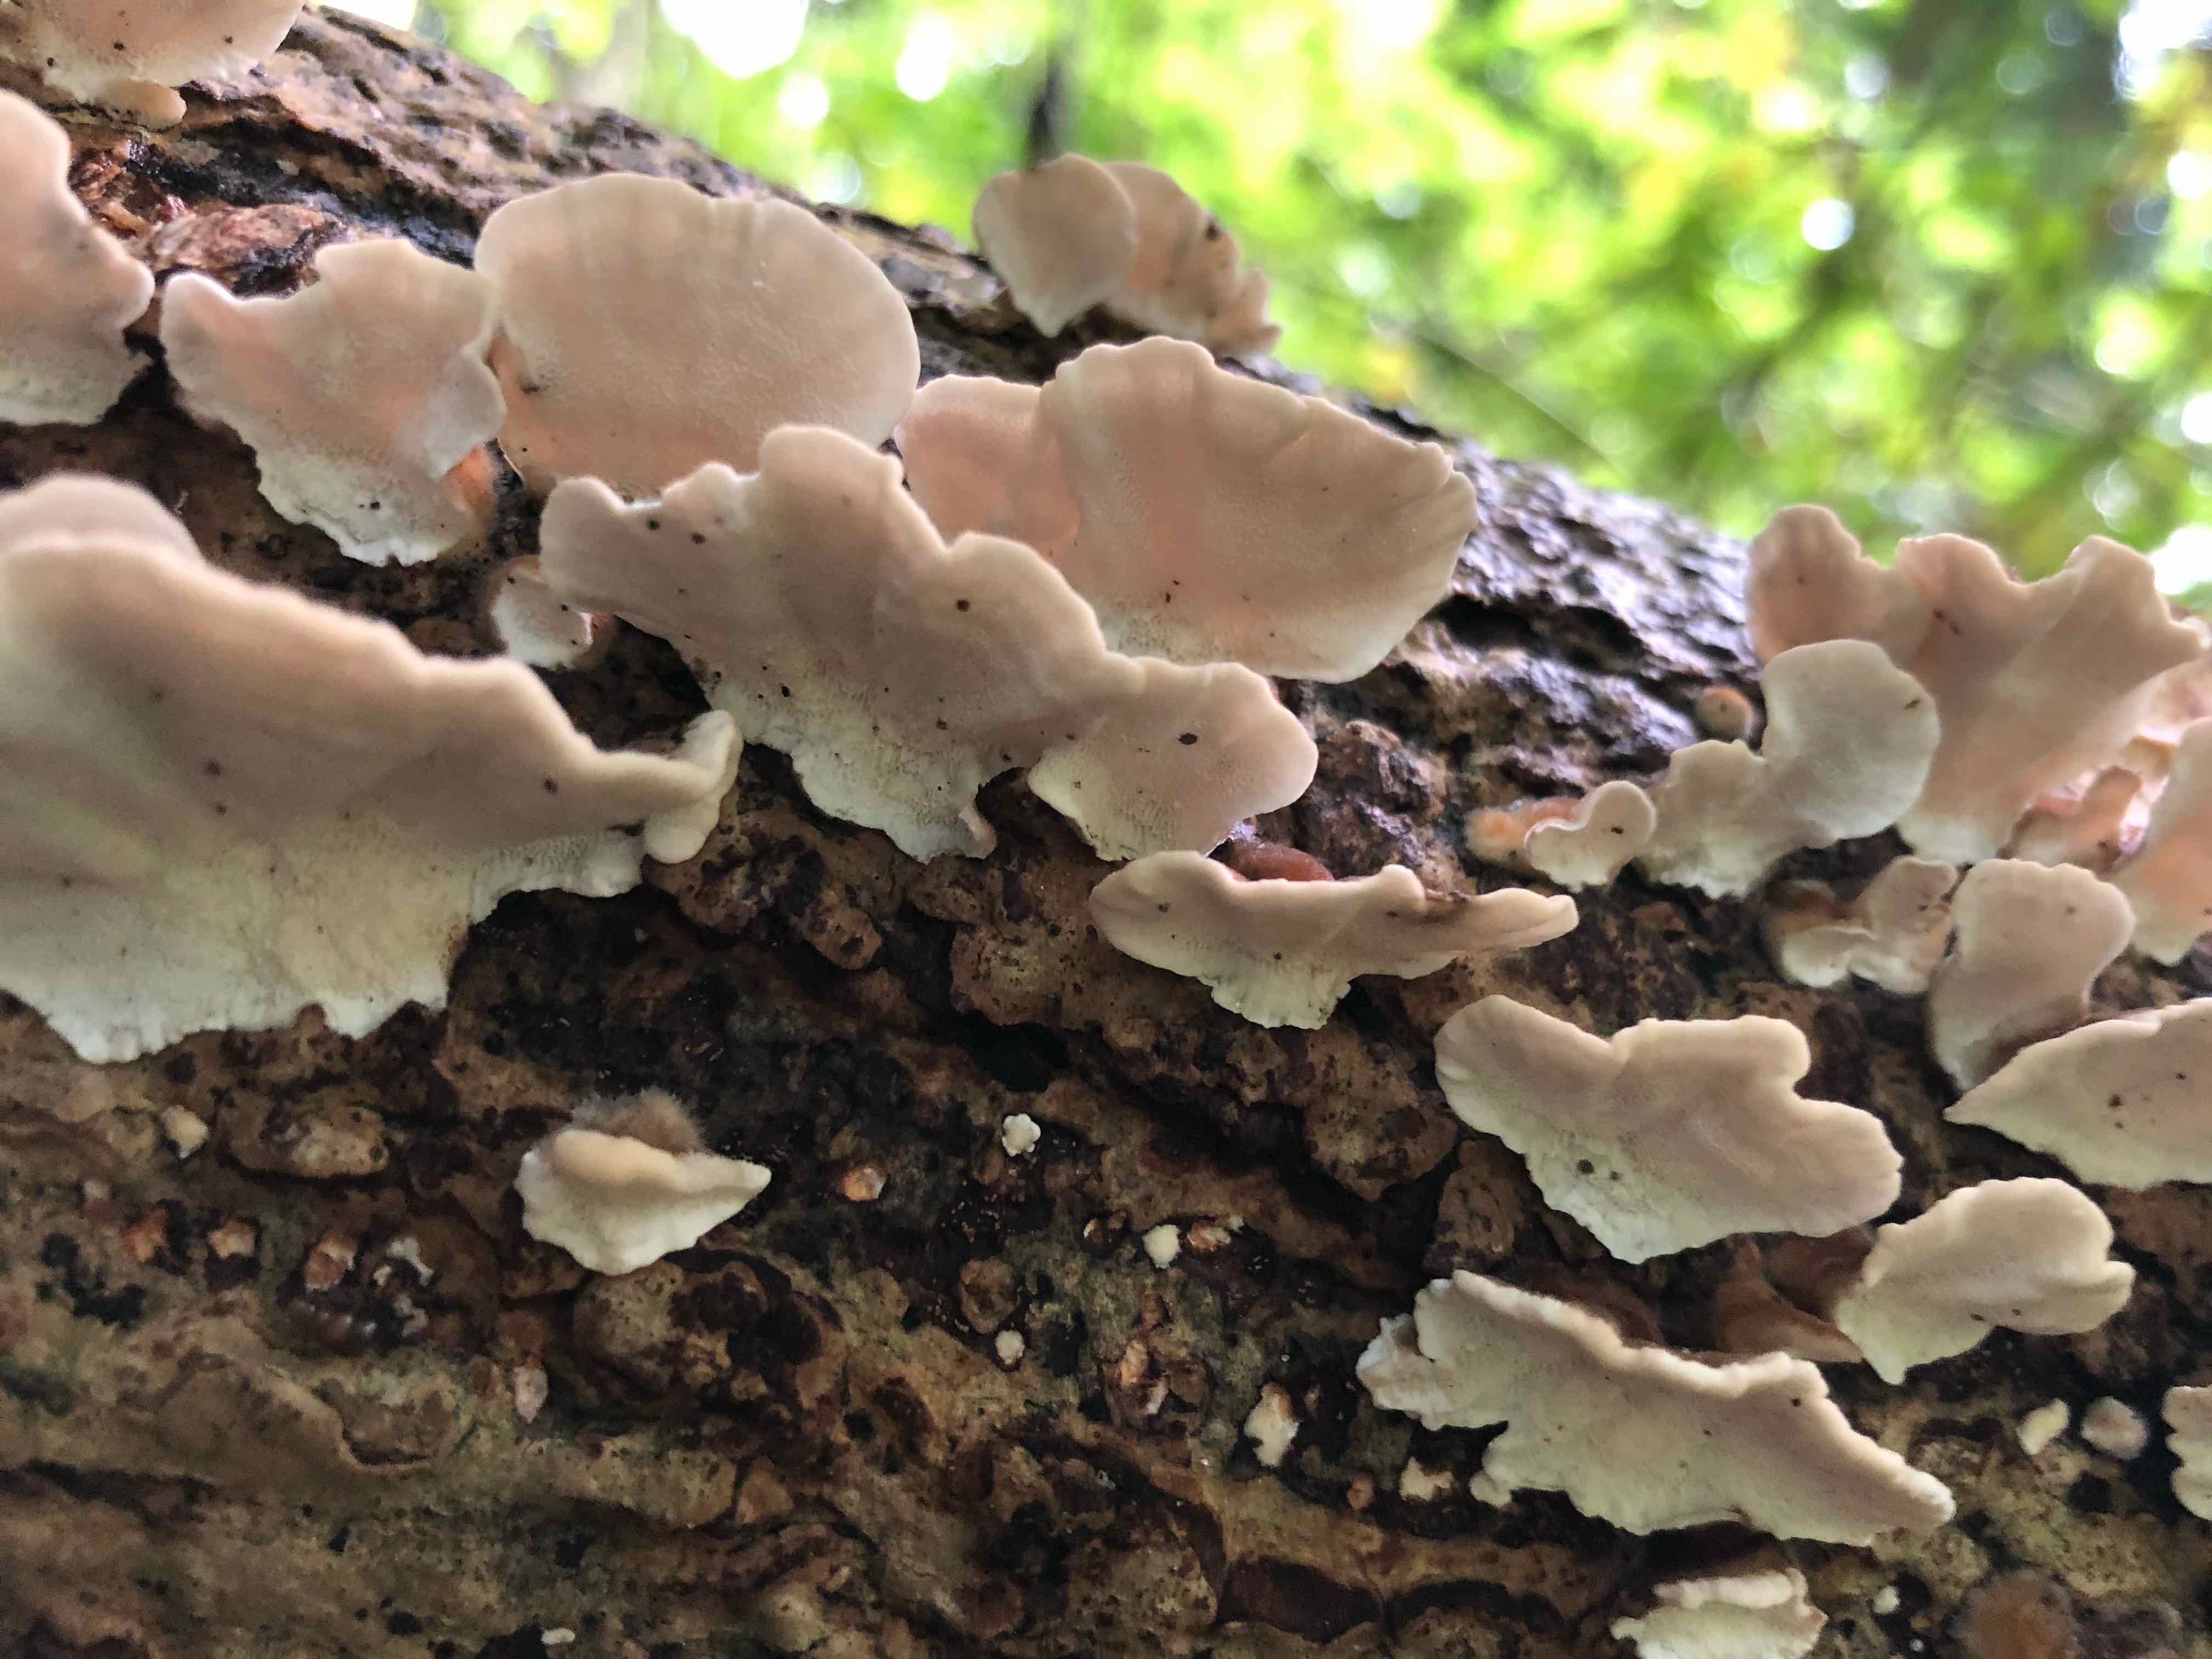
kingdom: Fungi
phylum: Basidiomycota
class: Agaricomycetes
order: Polyporales
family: Polyporaceae
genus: Trametes
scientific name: Trametes versicolor
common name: broget læderporesvamp
